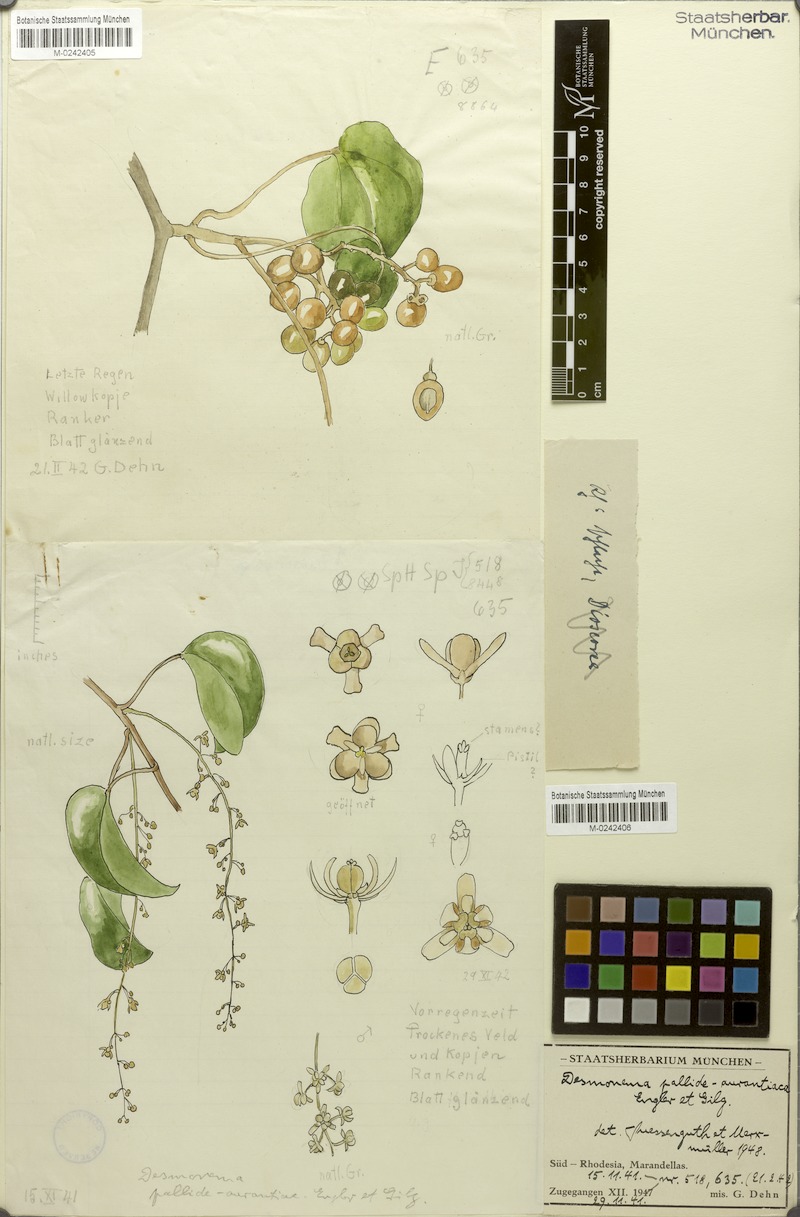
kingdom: Plantae
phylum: Tracheophyta
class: Magnoliopsida
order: Ranunculales
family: Menispermaceae
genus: Tinospora
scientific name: Tinospora caffra
